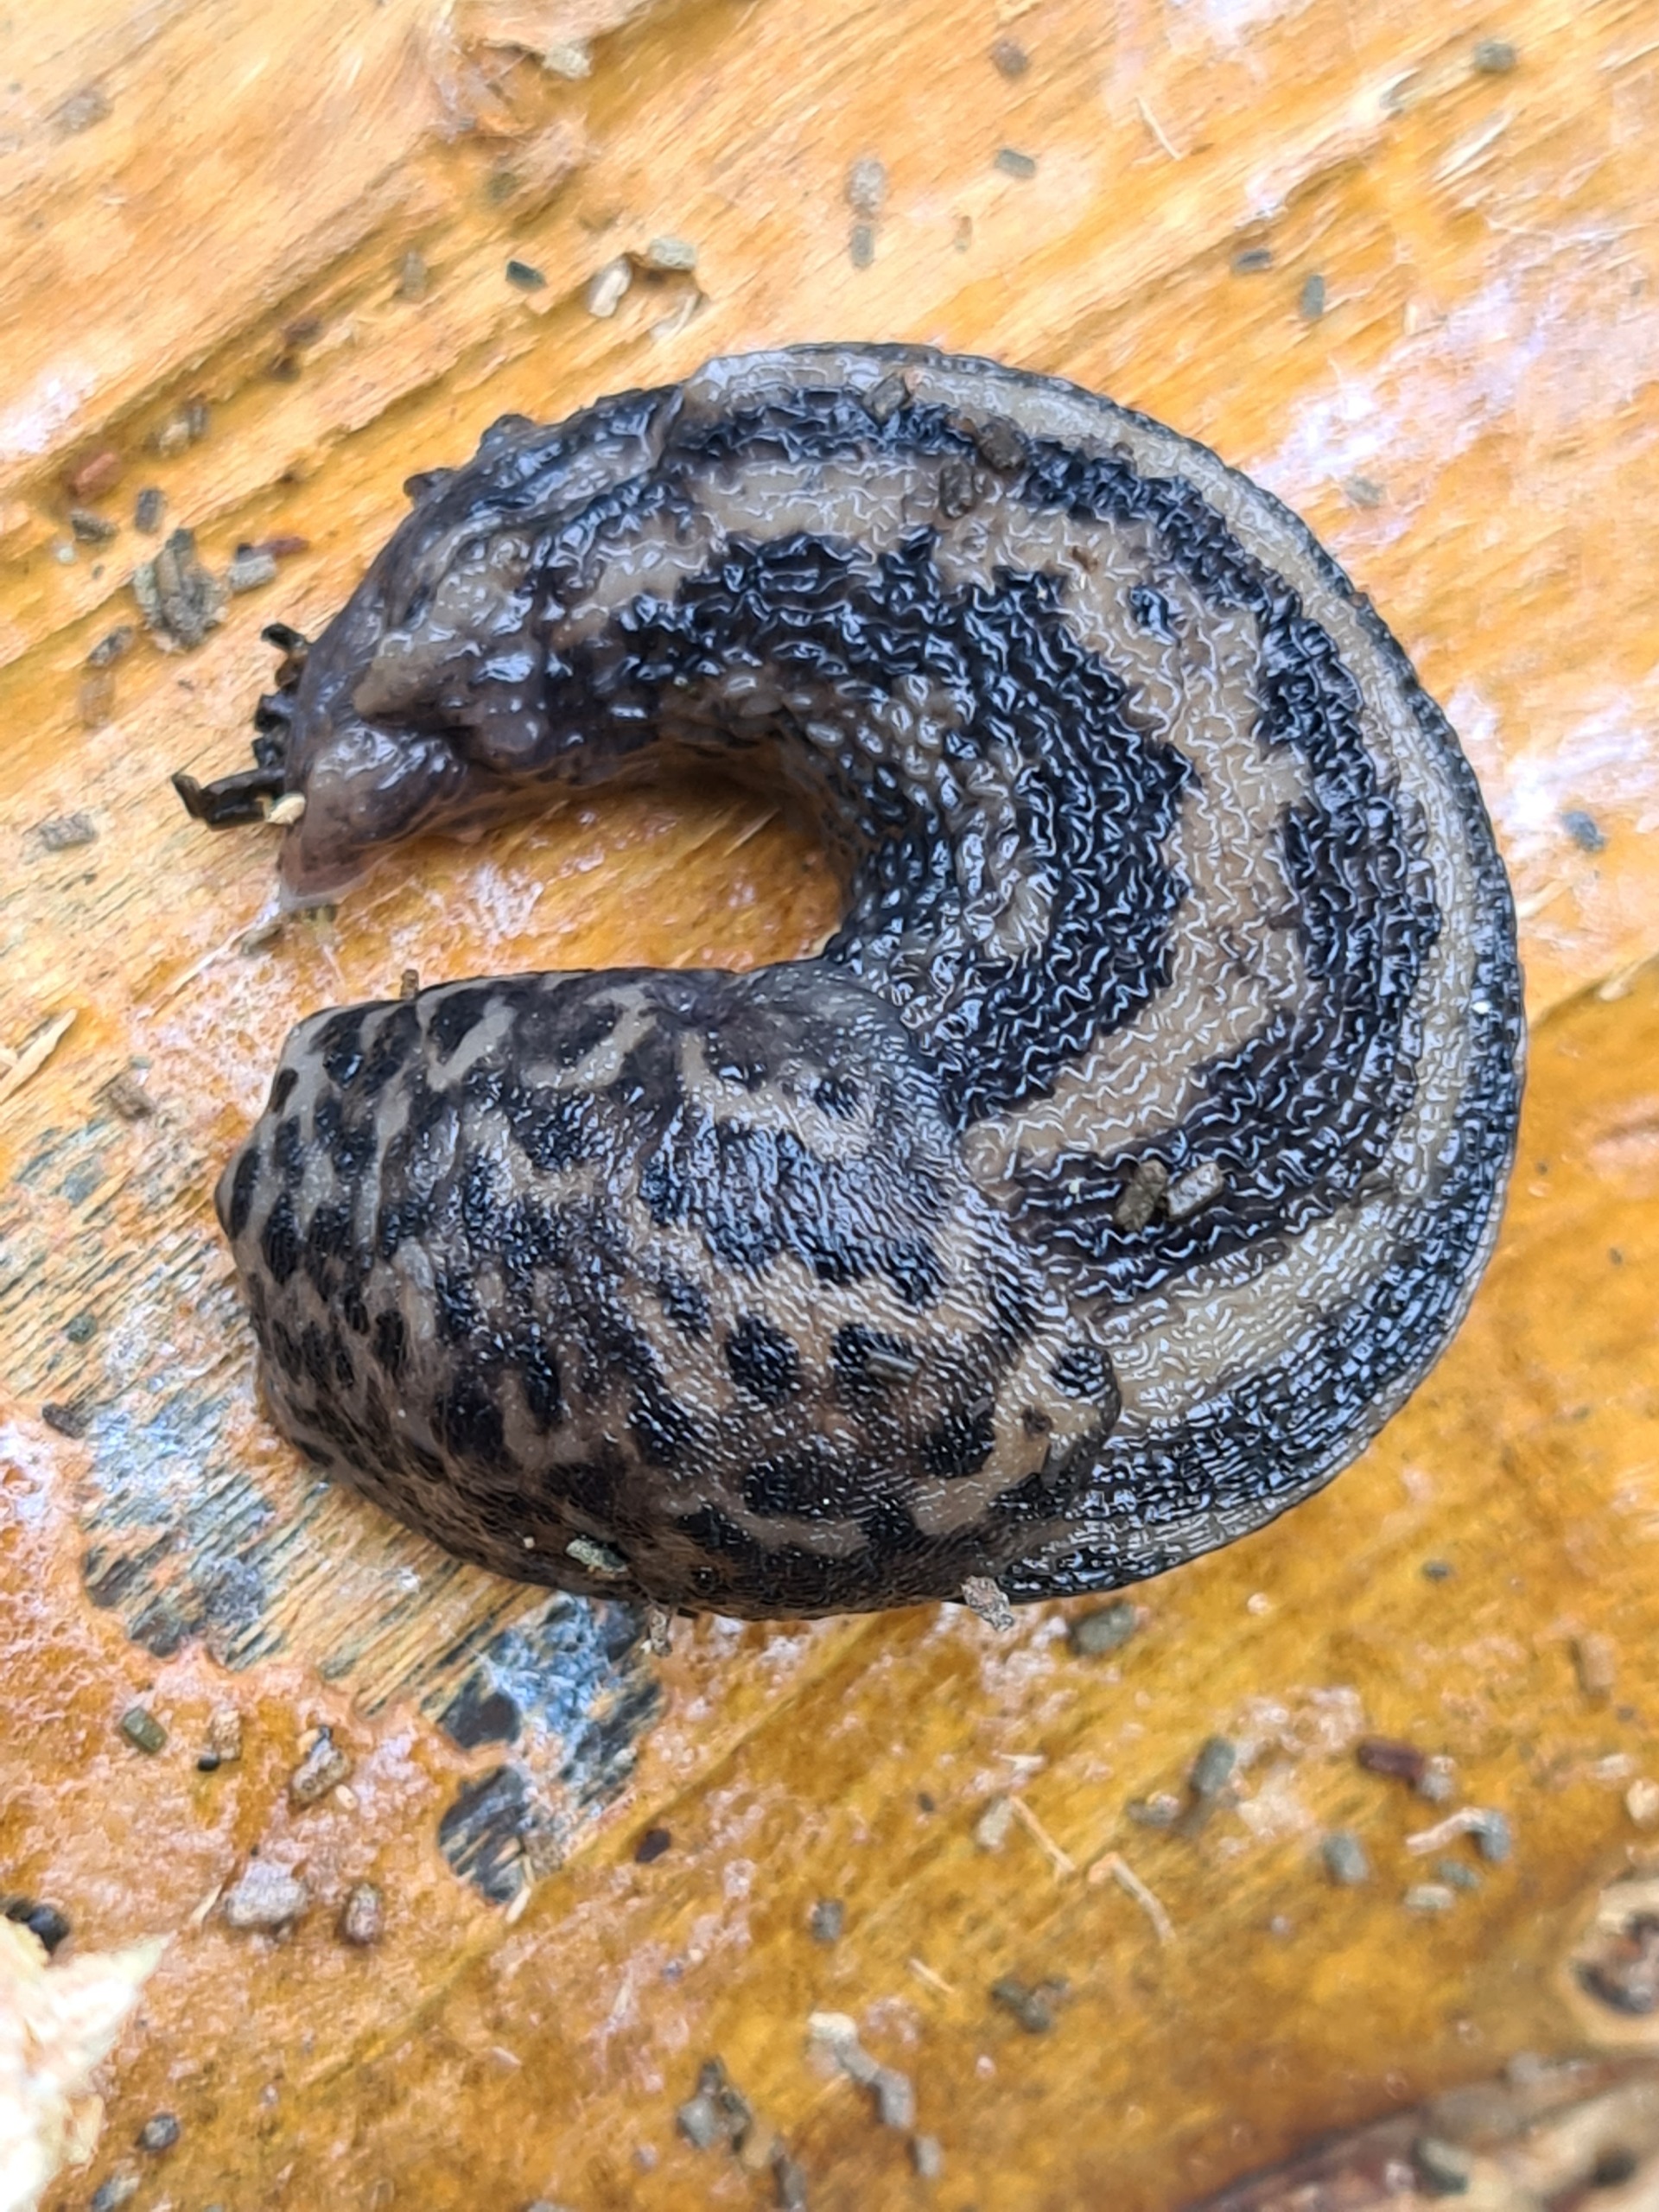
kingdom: Animalia
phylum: Mollusca
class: Gastropoda
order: Stylommatophora
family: Limacidae
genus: Limax
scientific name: Limax maximus
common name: Pantersnegl
